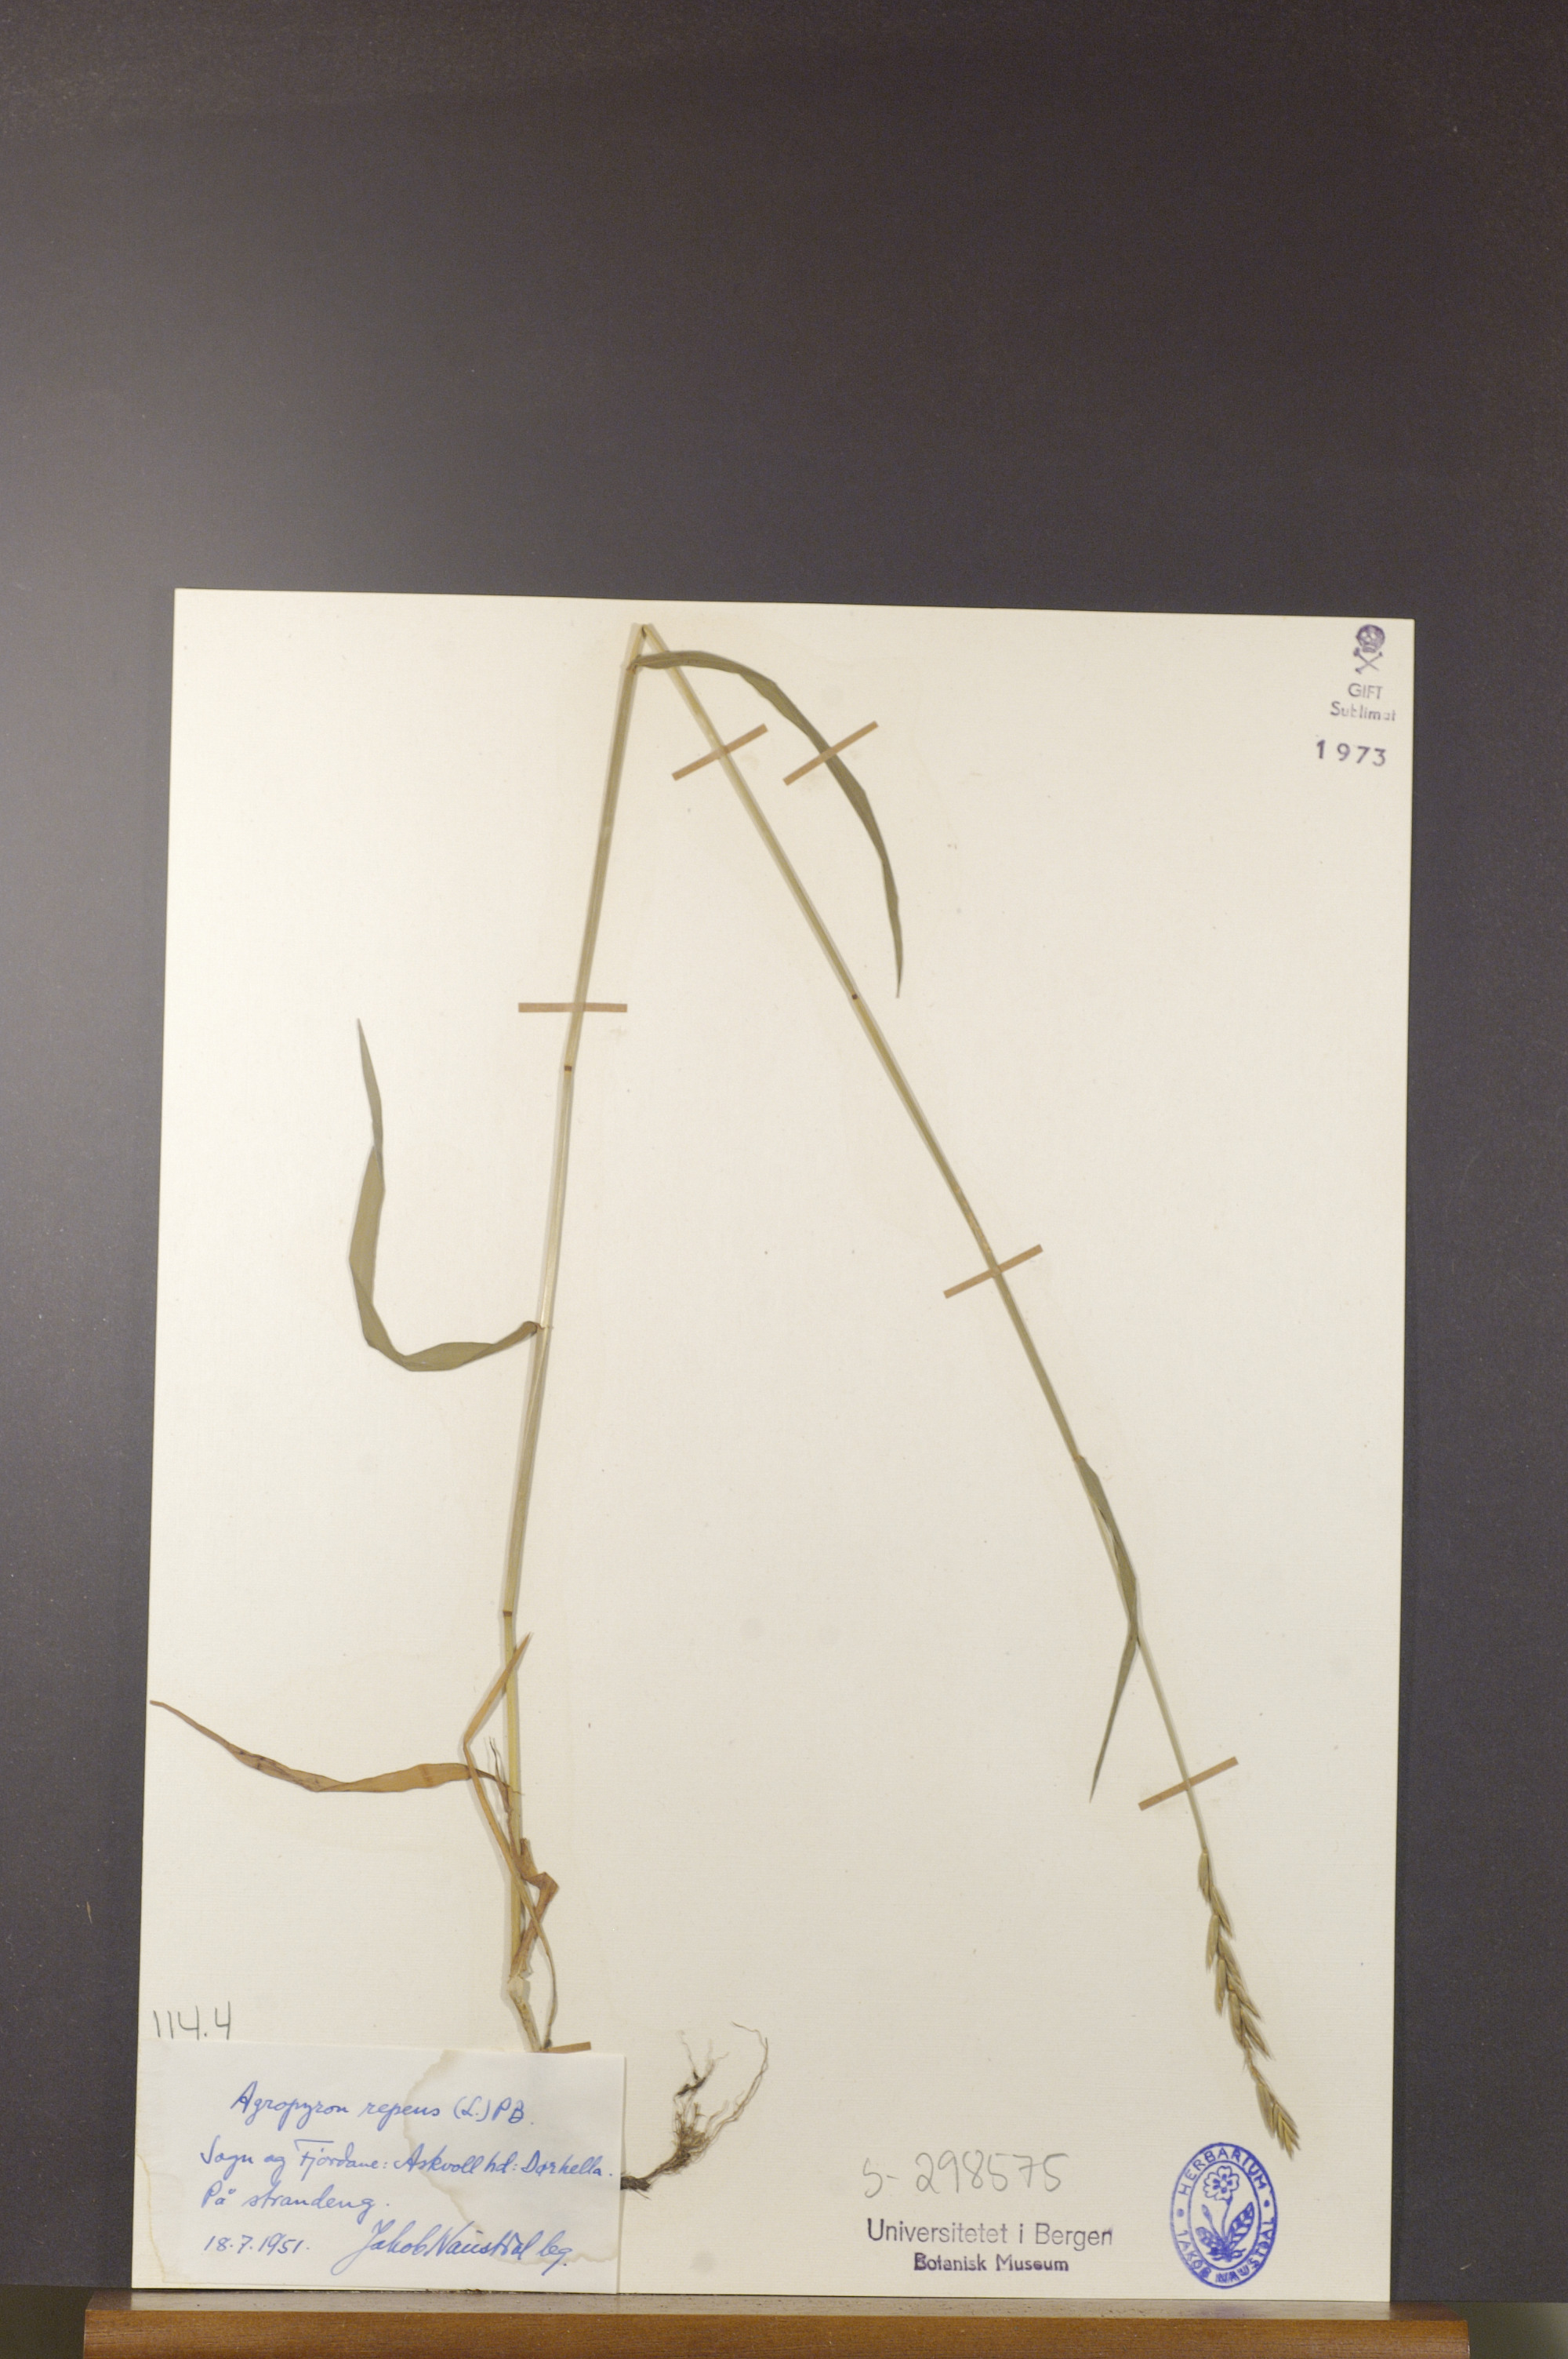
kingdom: Plantae
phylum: Tracheophyta
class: Liliopsida
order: Poales
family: Poaceae
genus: Elymus
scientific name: Elymus repens
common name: Quackgrass
